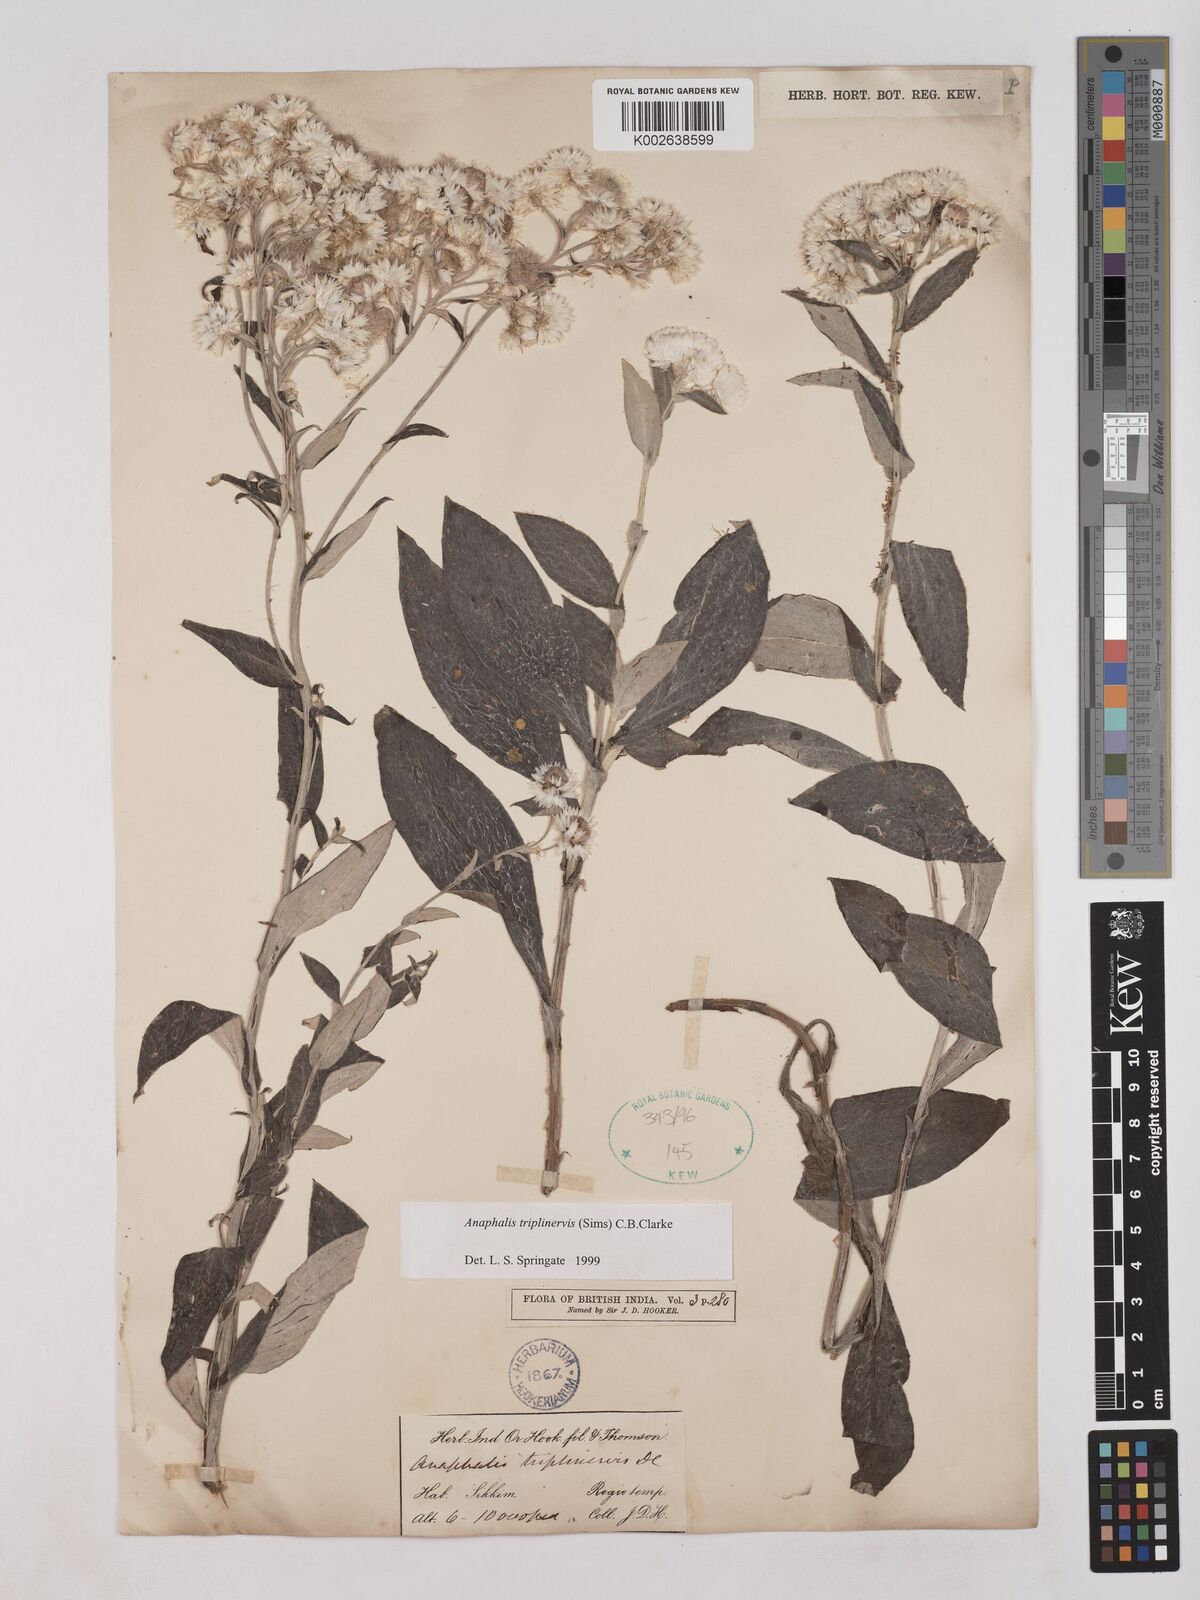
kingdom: Plantae
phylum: Tracheophyta
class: Magnoliopsida
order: Asterales
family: Asteraceae
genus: Anaphalis
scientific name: Anaphalis triplinervis
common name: Pearly everlasting
